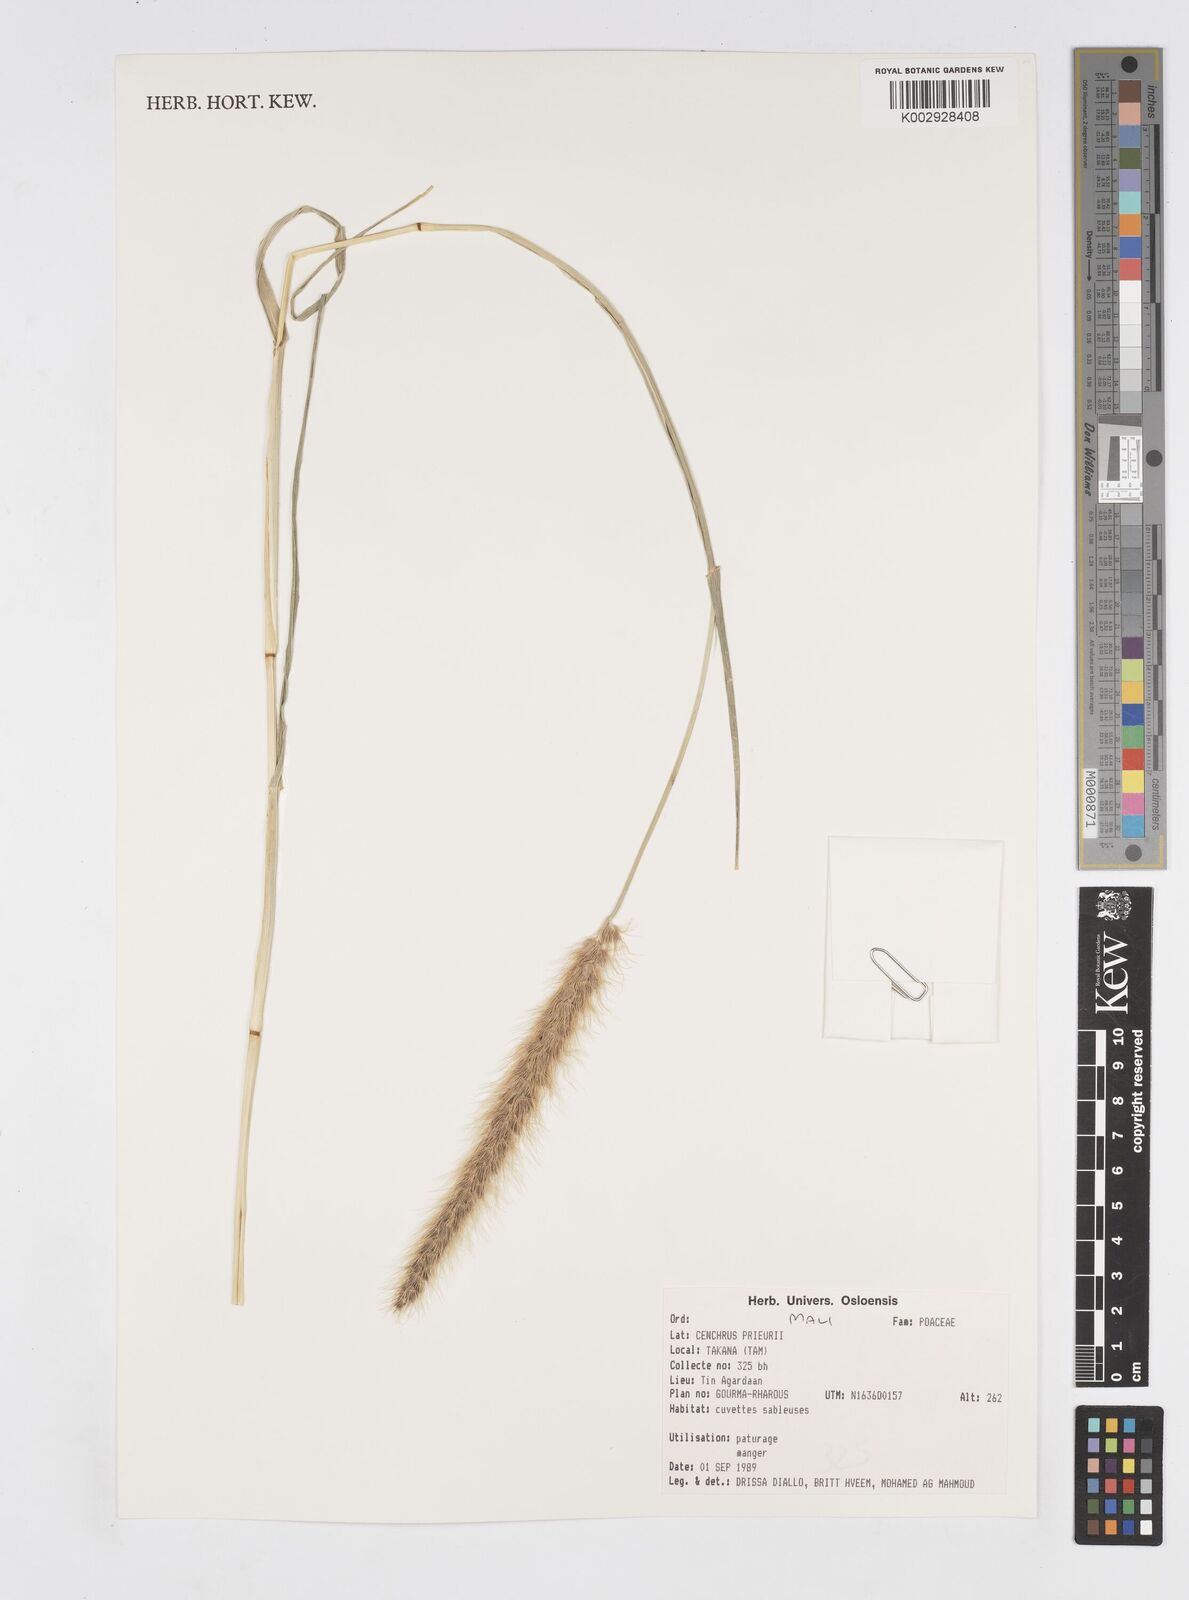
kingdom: Plantae
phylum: Tracheophyta
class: Liliopsida
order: Poales
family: Poaceae
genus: Cenchrus
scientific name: Cenchrus prieurii
